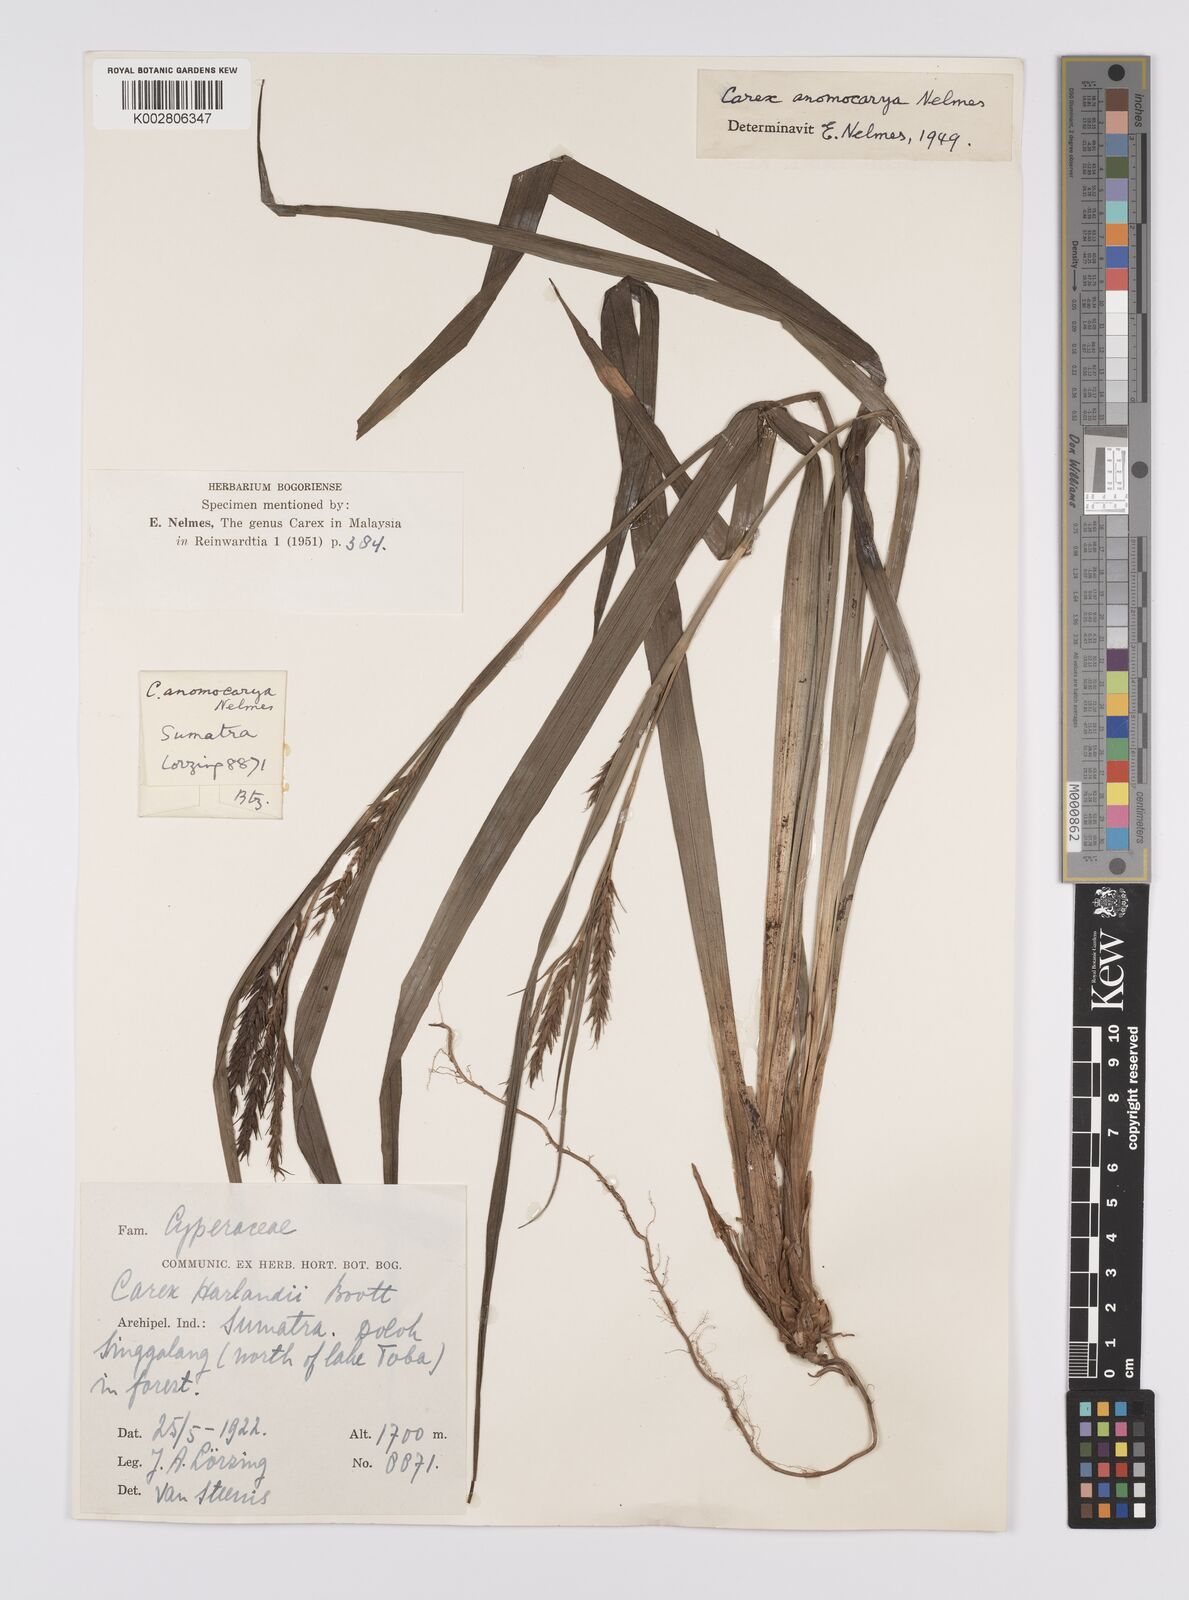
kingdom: Plantae
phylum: Tracheophyta
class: Liliopsida
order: Poales
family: Cyperaceae
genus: Carex
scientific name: Carex harlandii
